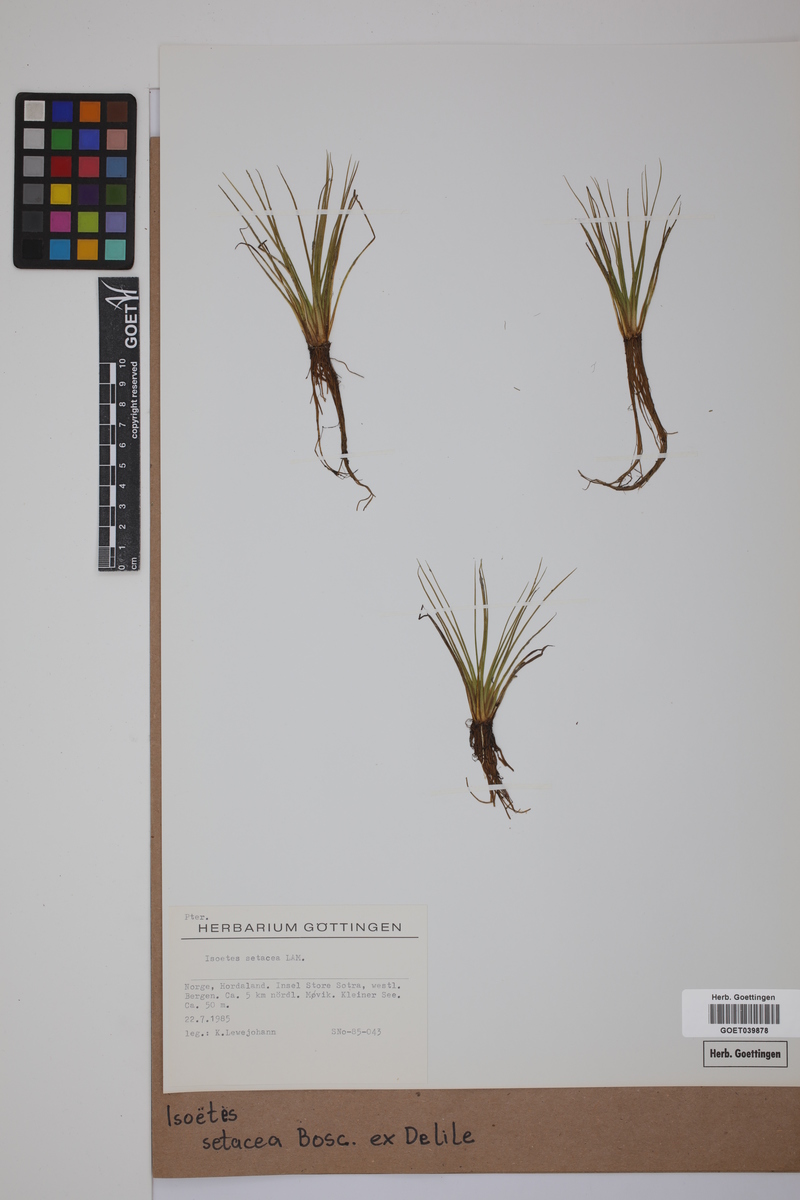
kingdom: Plantae
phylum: Tracheophyta
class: Lycopodiopsida
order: Isoetales
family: Isoetaceae
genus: Isoetes
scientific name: Isoetes longissima
